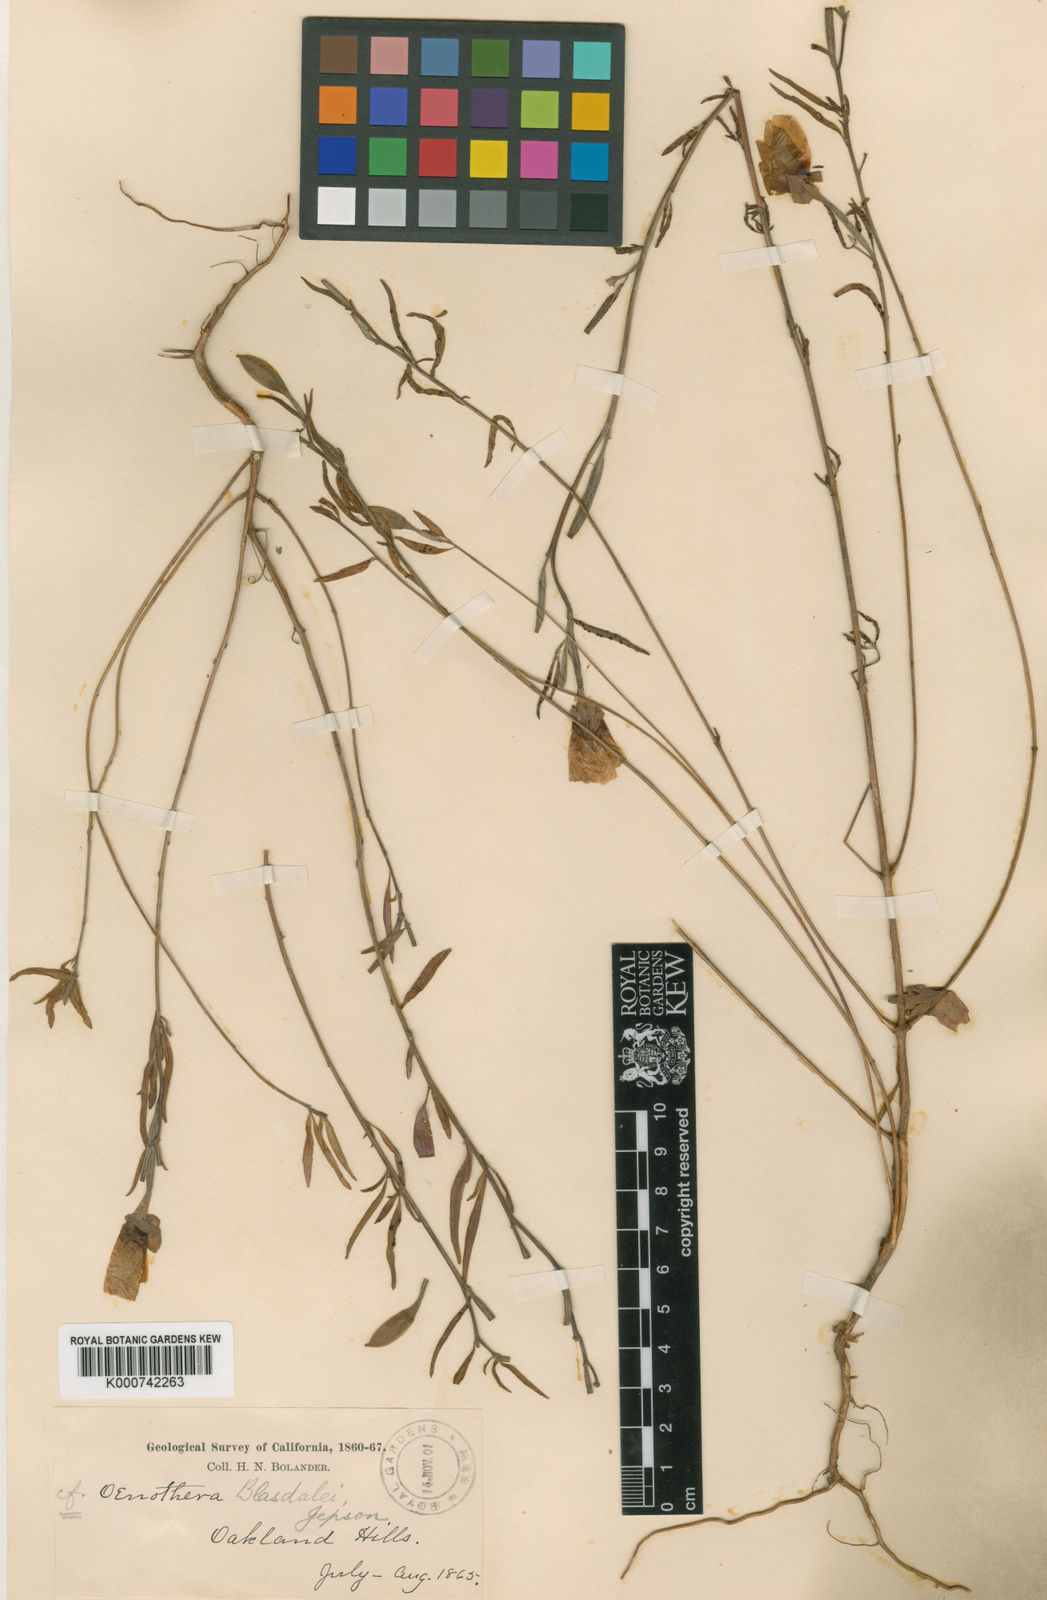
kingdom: Plantae
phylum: Tracheophyta
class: Magnoliopsida
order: Myrtales
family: Onagraceae
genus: Clarkia
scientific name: Clarkia rubicunda
